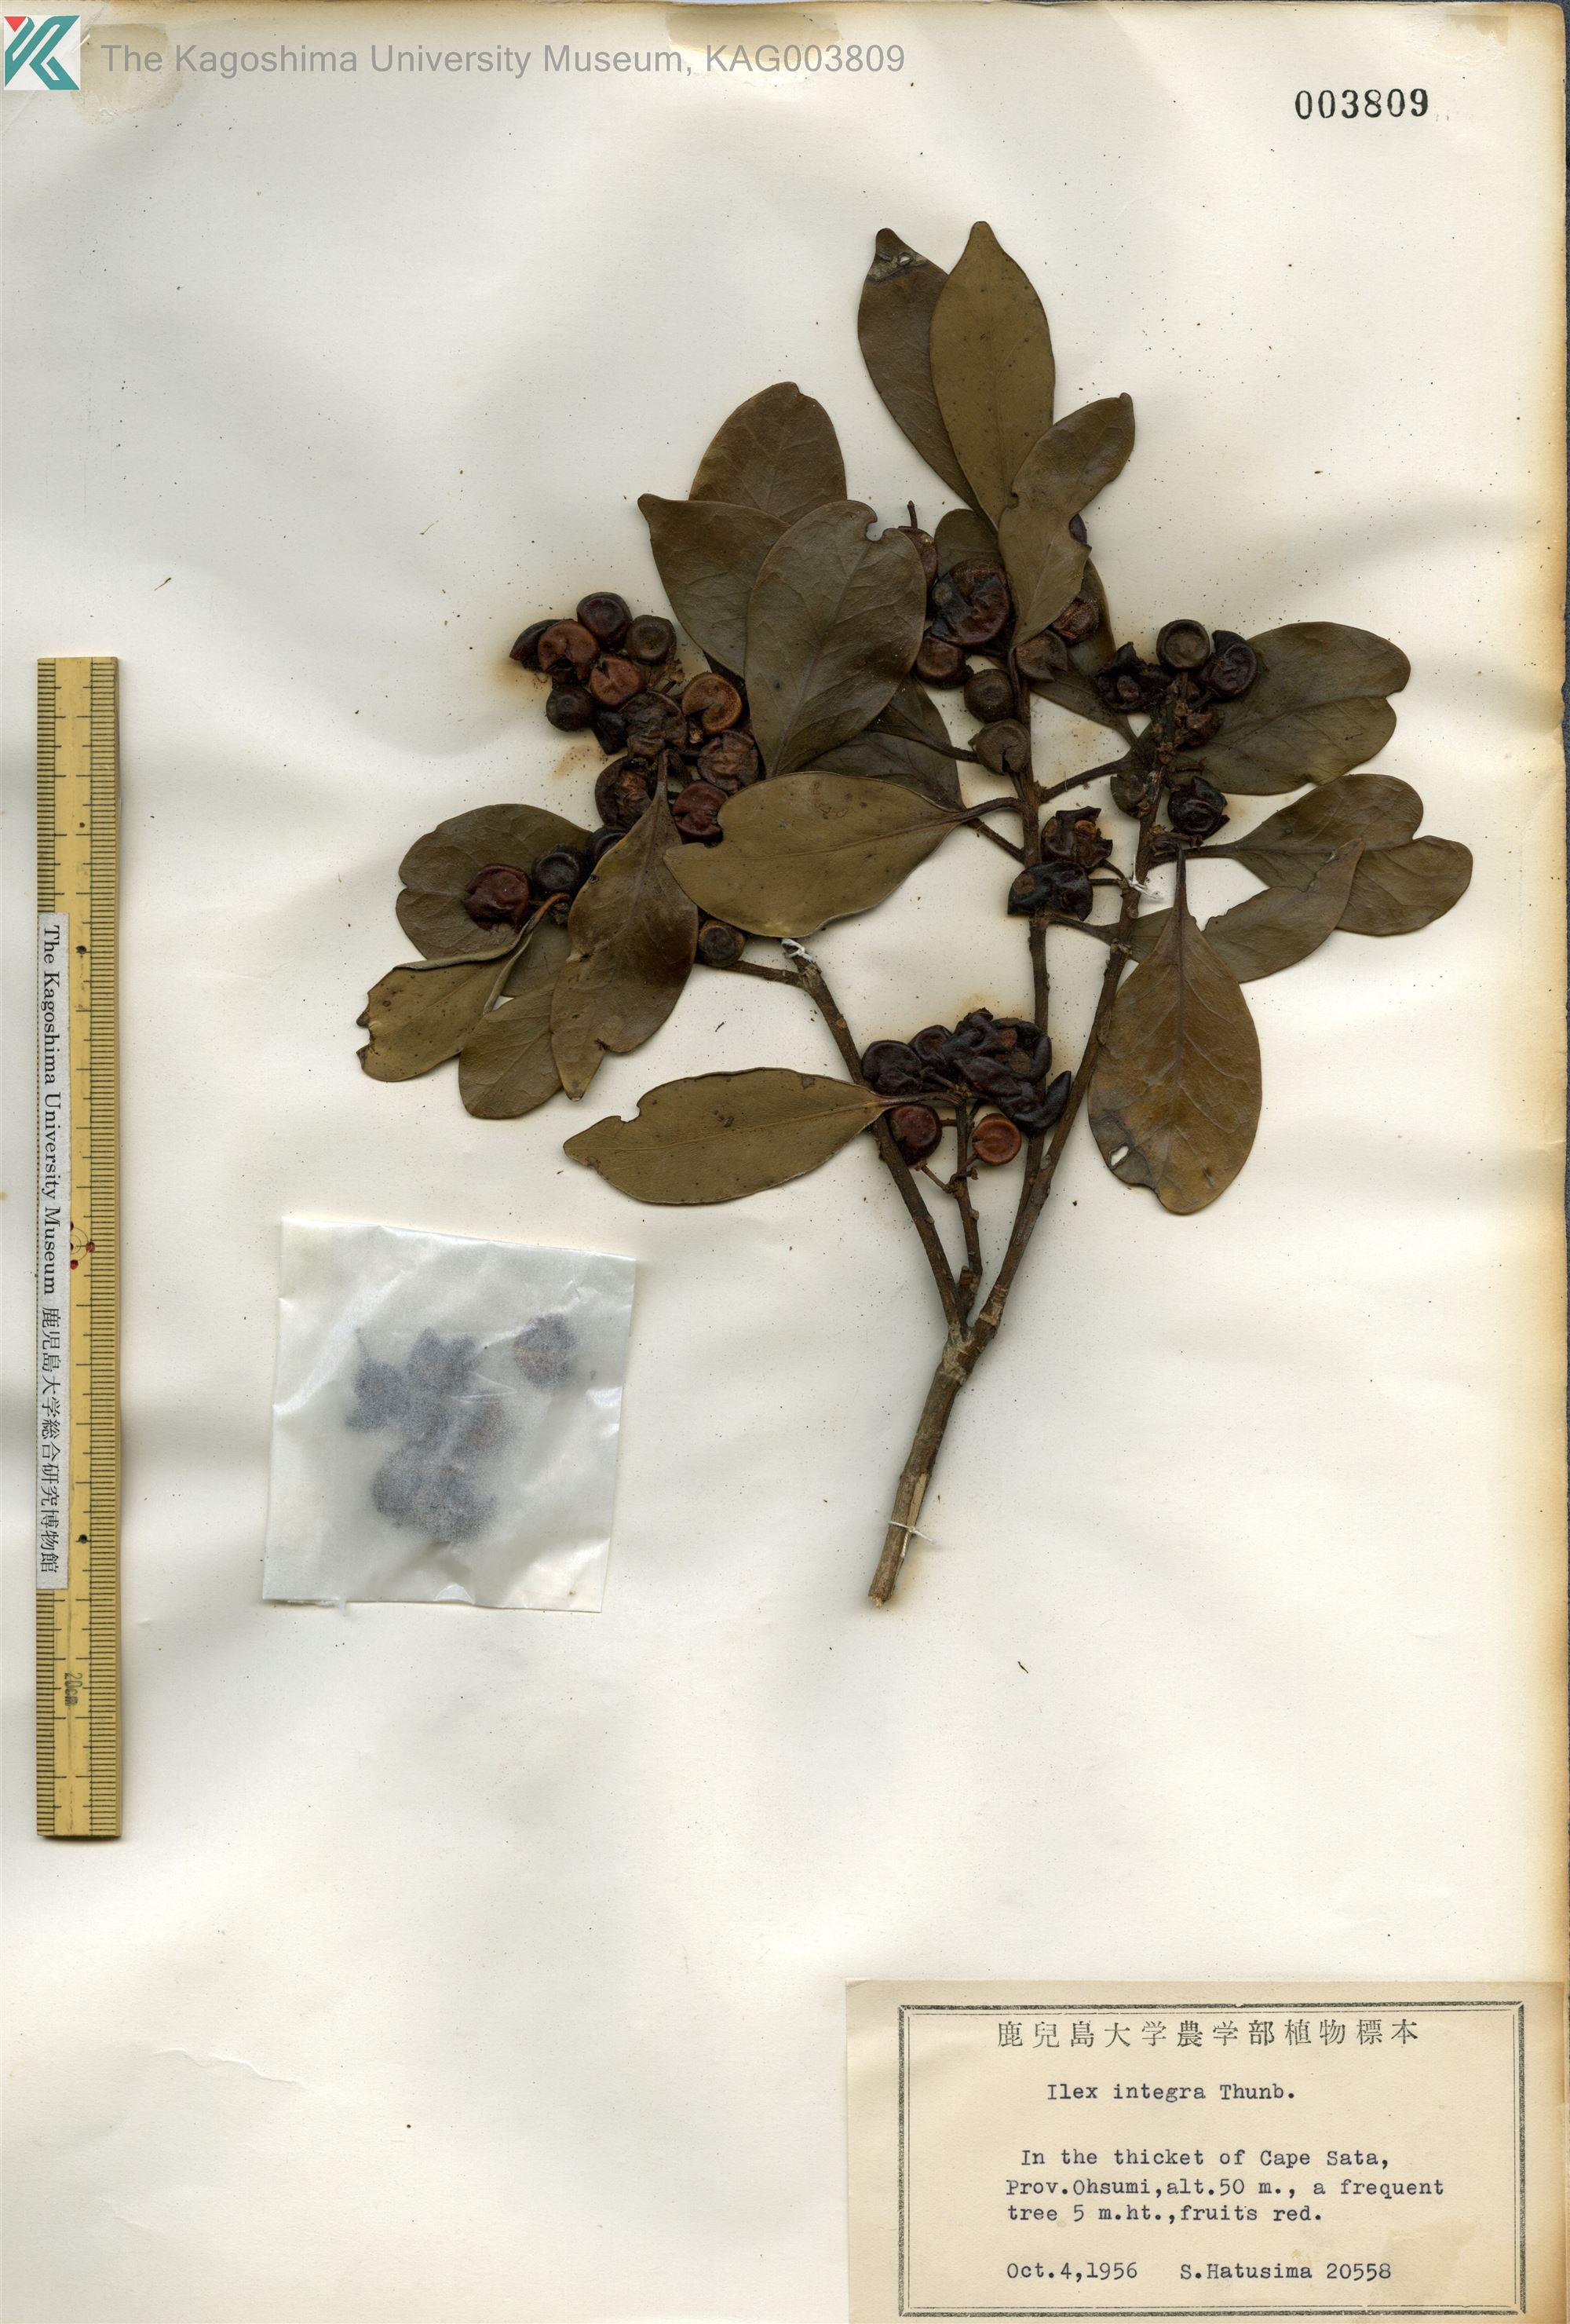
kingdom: Plantae
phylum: Tracheophyta
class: Magnoliopsida
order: Aquifoliales
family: Aquifoliaceae
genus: Ilex
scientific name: Ilex integra
